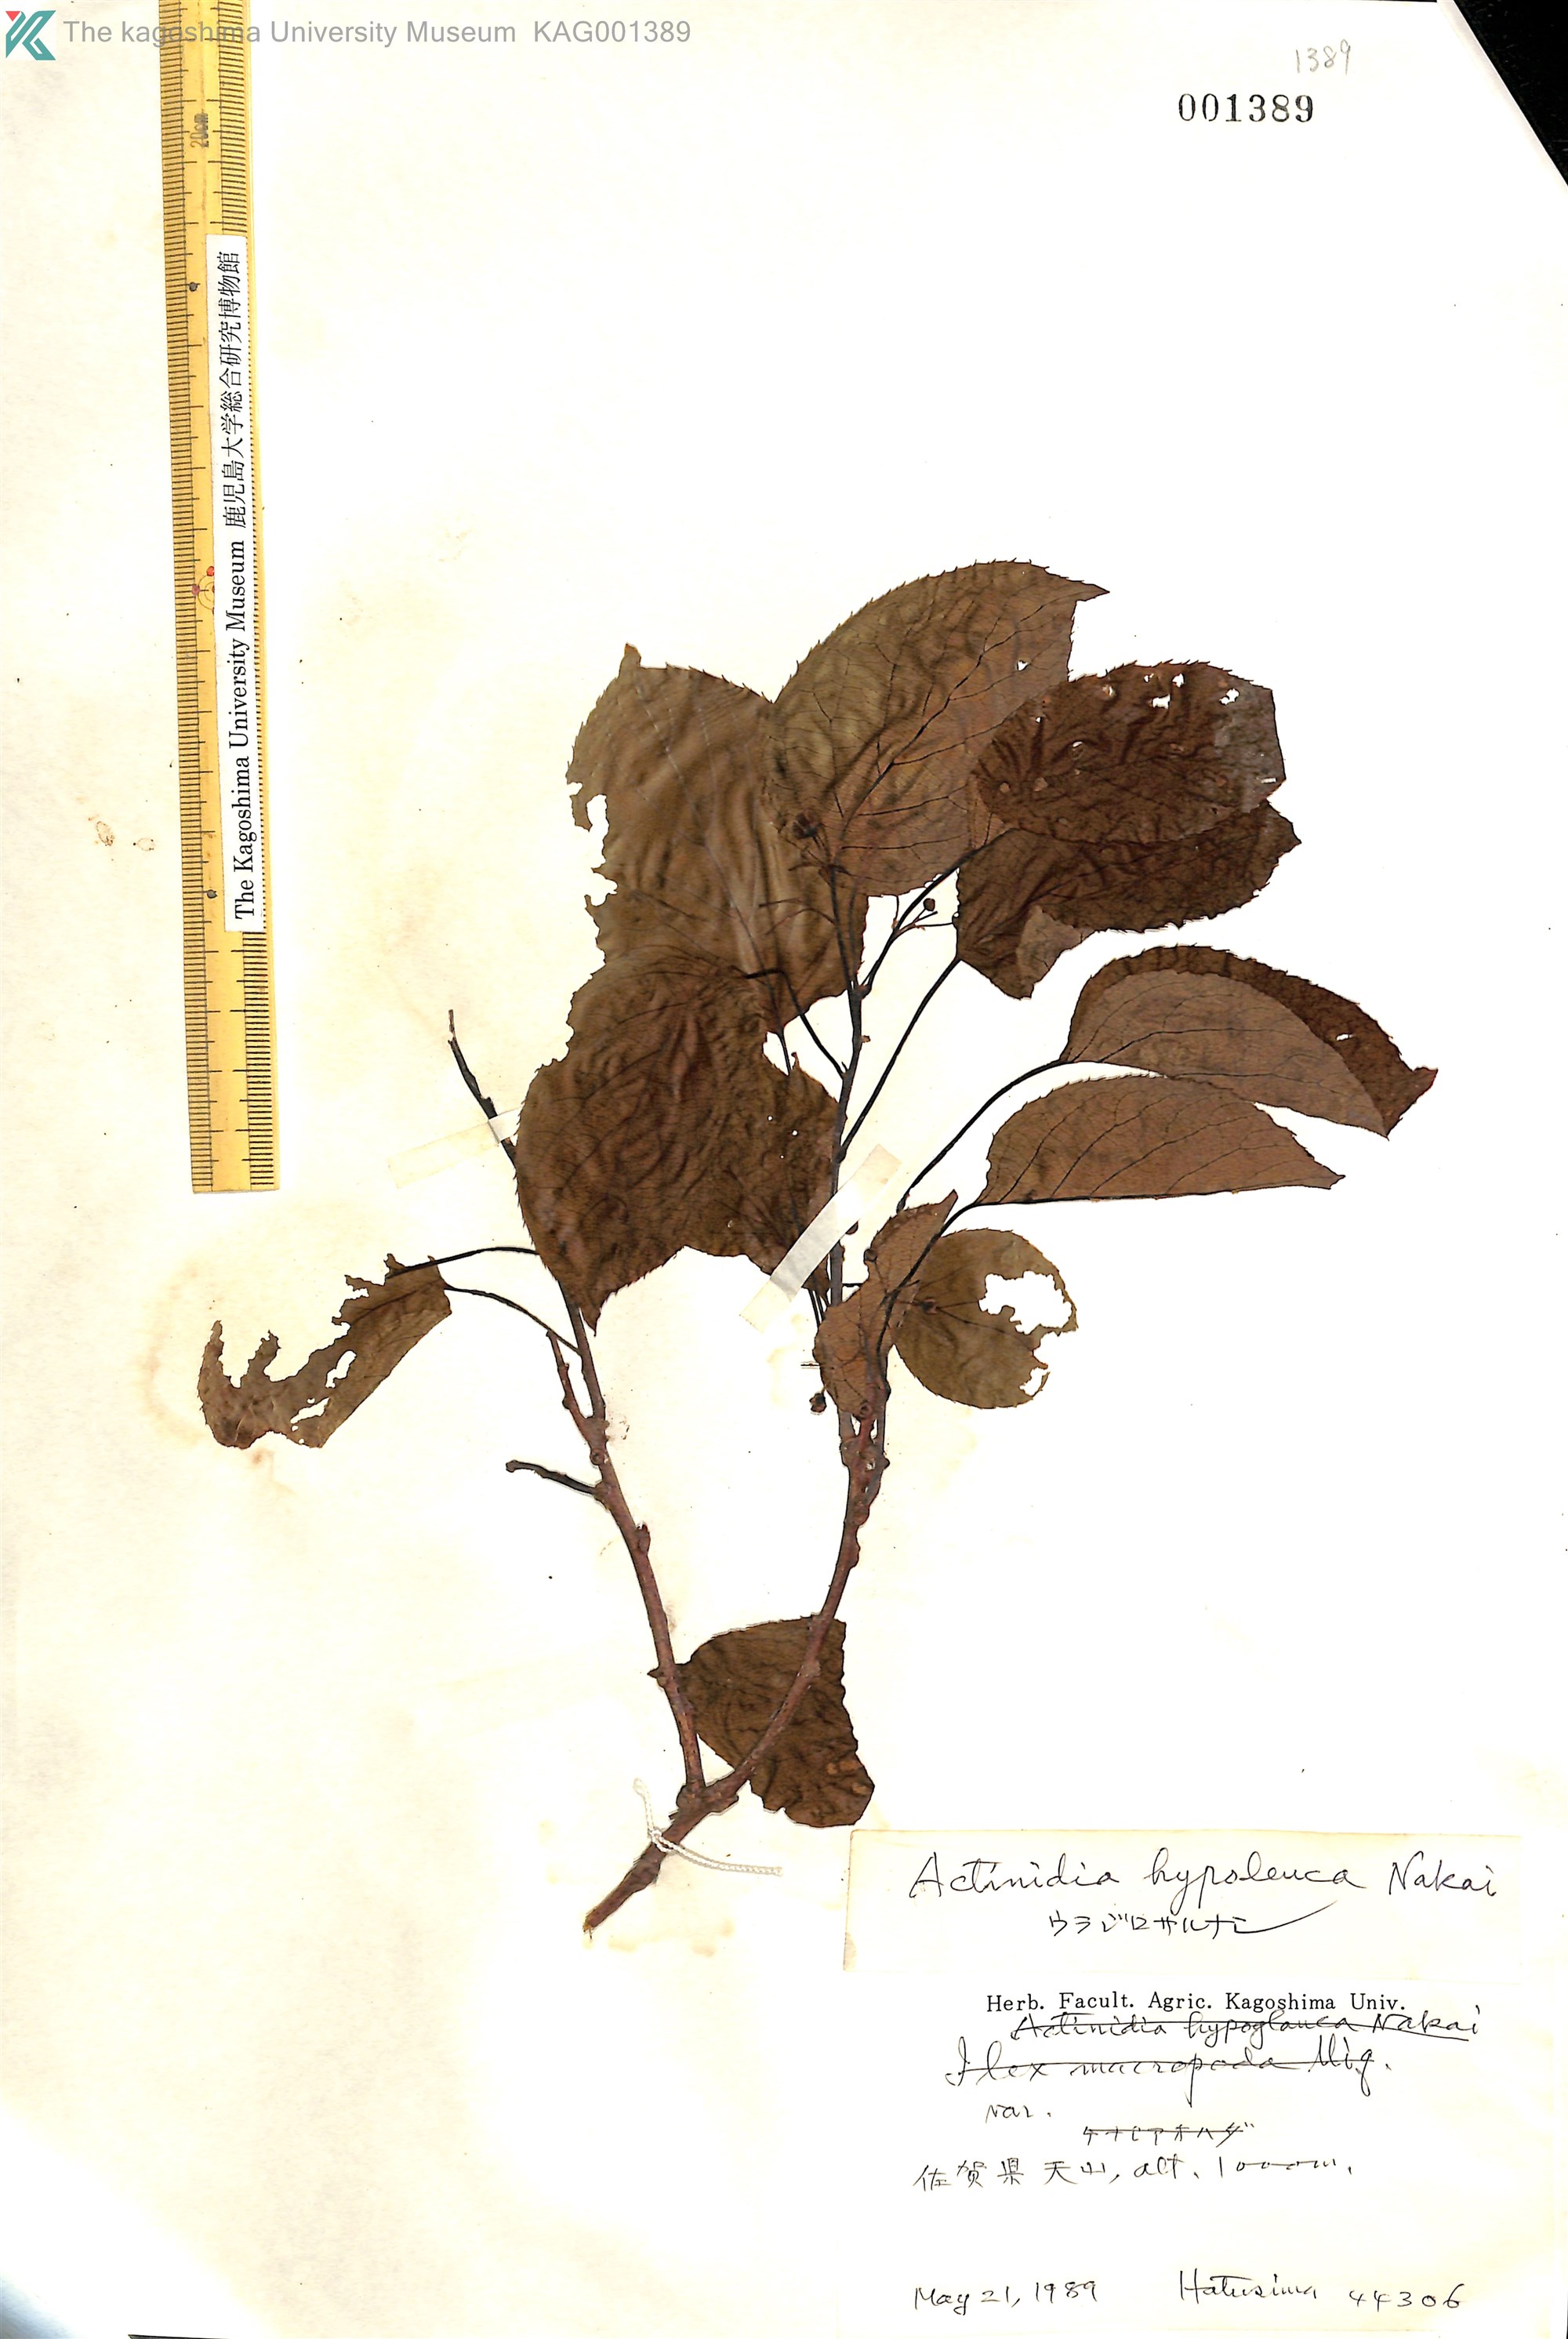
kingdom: Plantae
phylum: Tracheophyta
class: Magnoliopsida
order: Ericales
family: Actinidiaceae
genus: Actinidia
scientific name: Actinidia arguta
